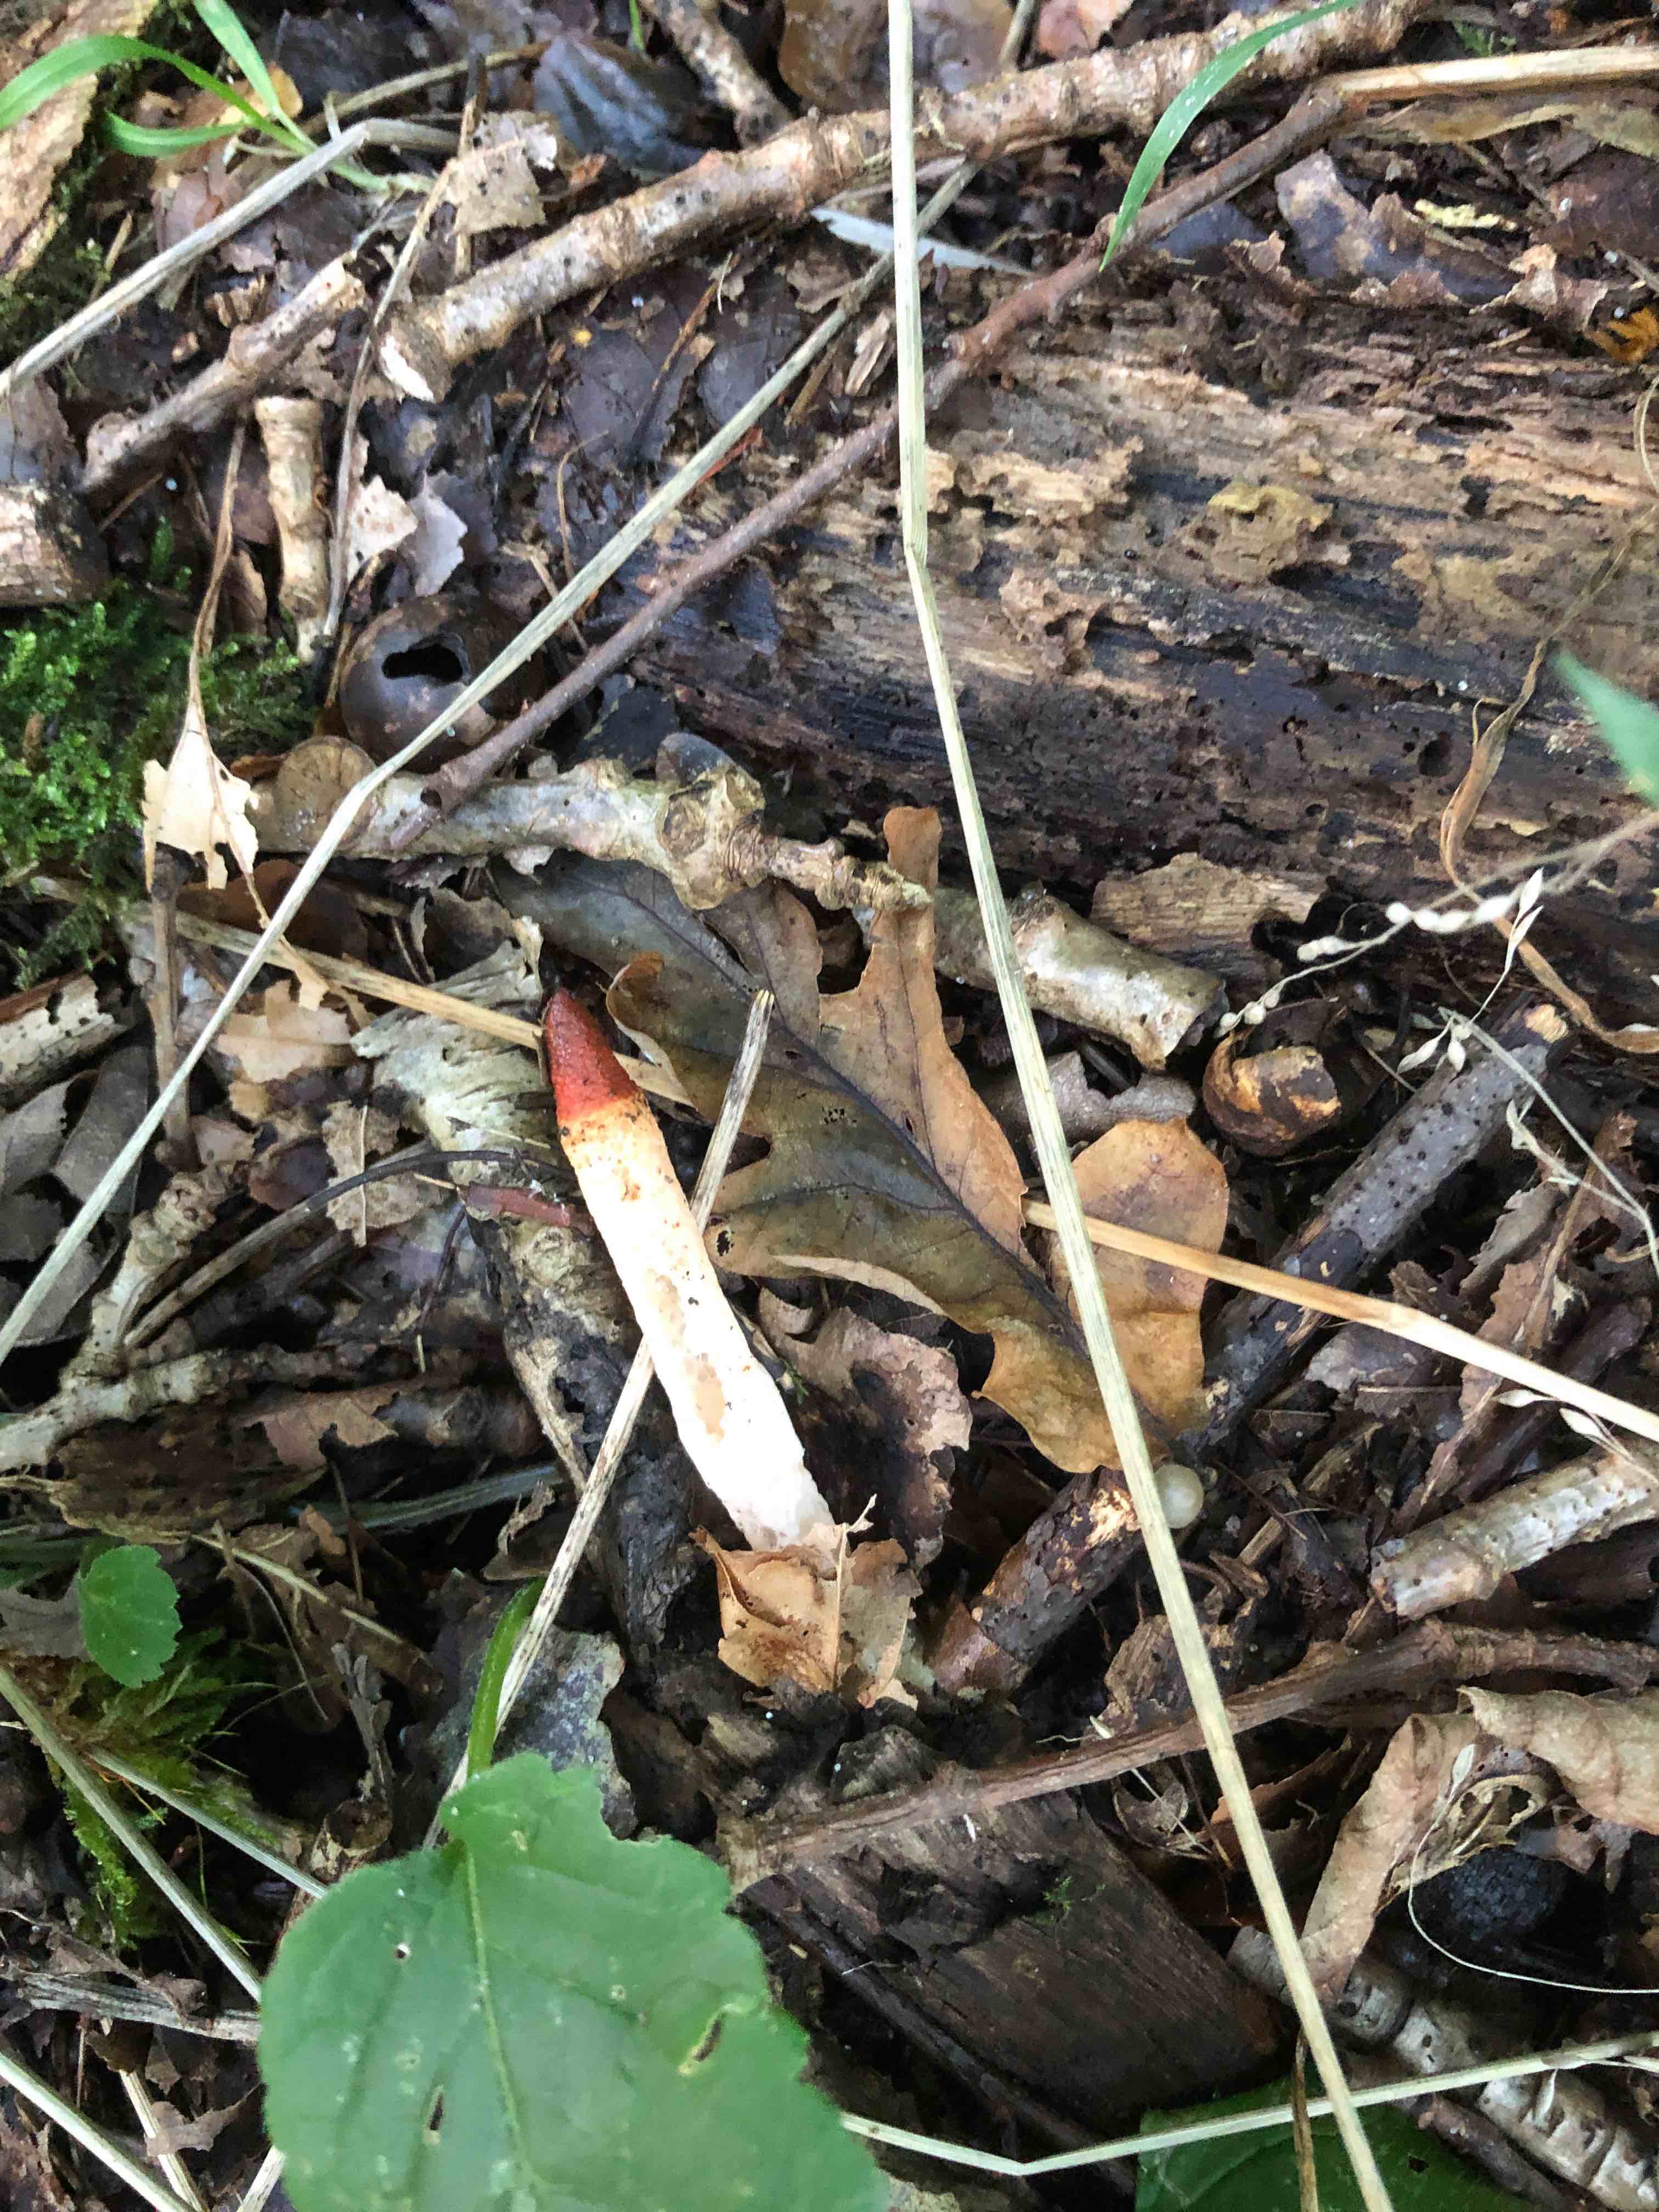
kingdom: Fungi
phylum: Basidiomycota
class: Agaricomycetes
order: Phallales
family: Phallaceae
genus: Mutinus
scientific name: Mutinus caninus
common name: hunde-stinksvamp
